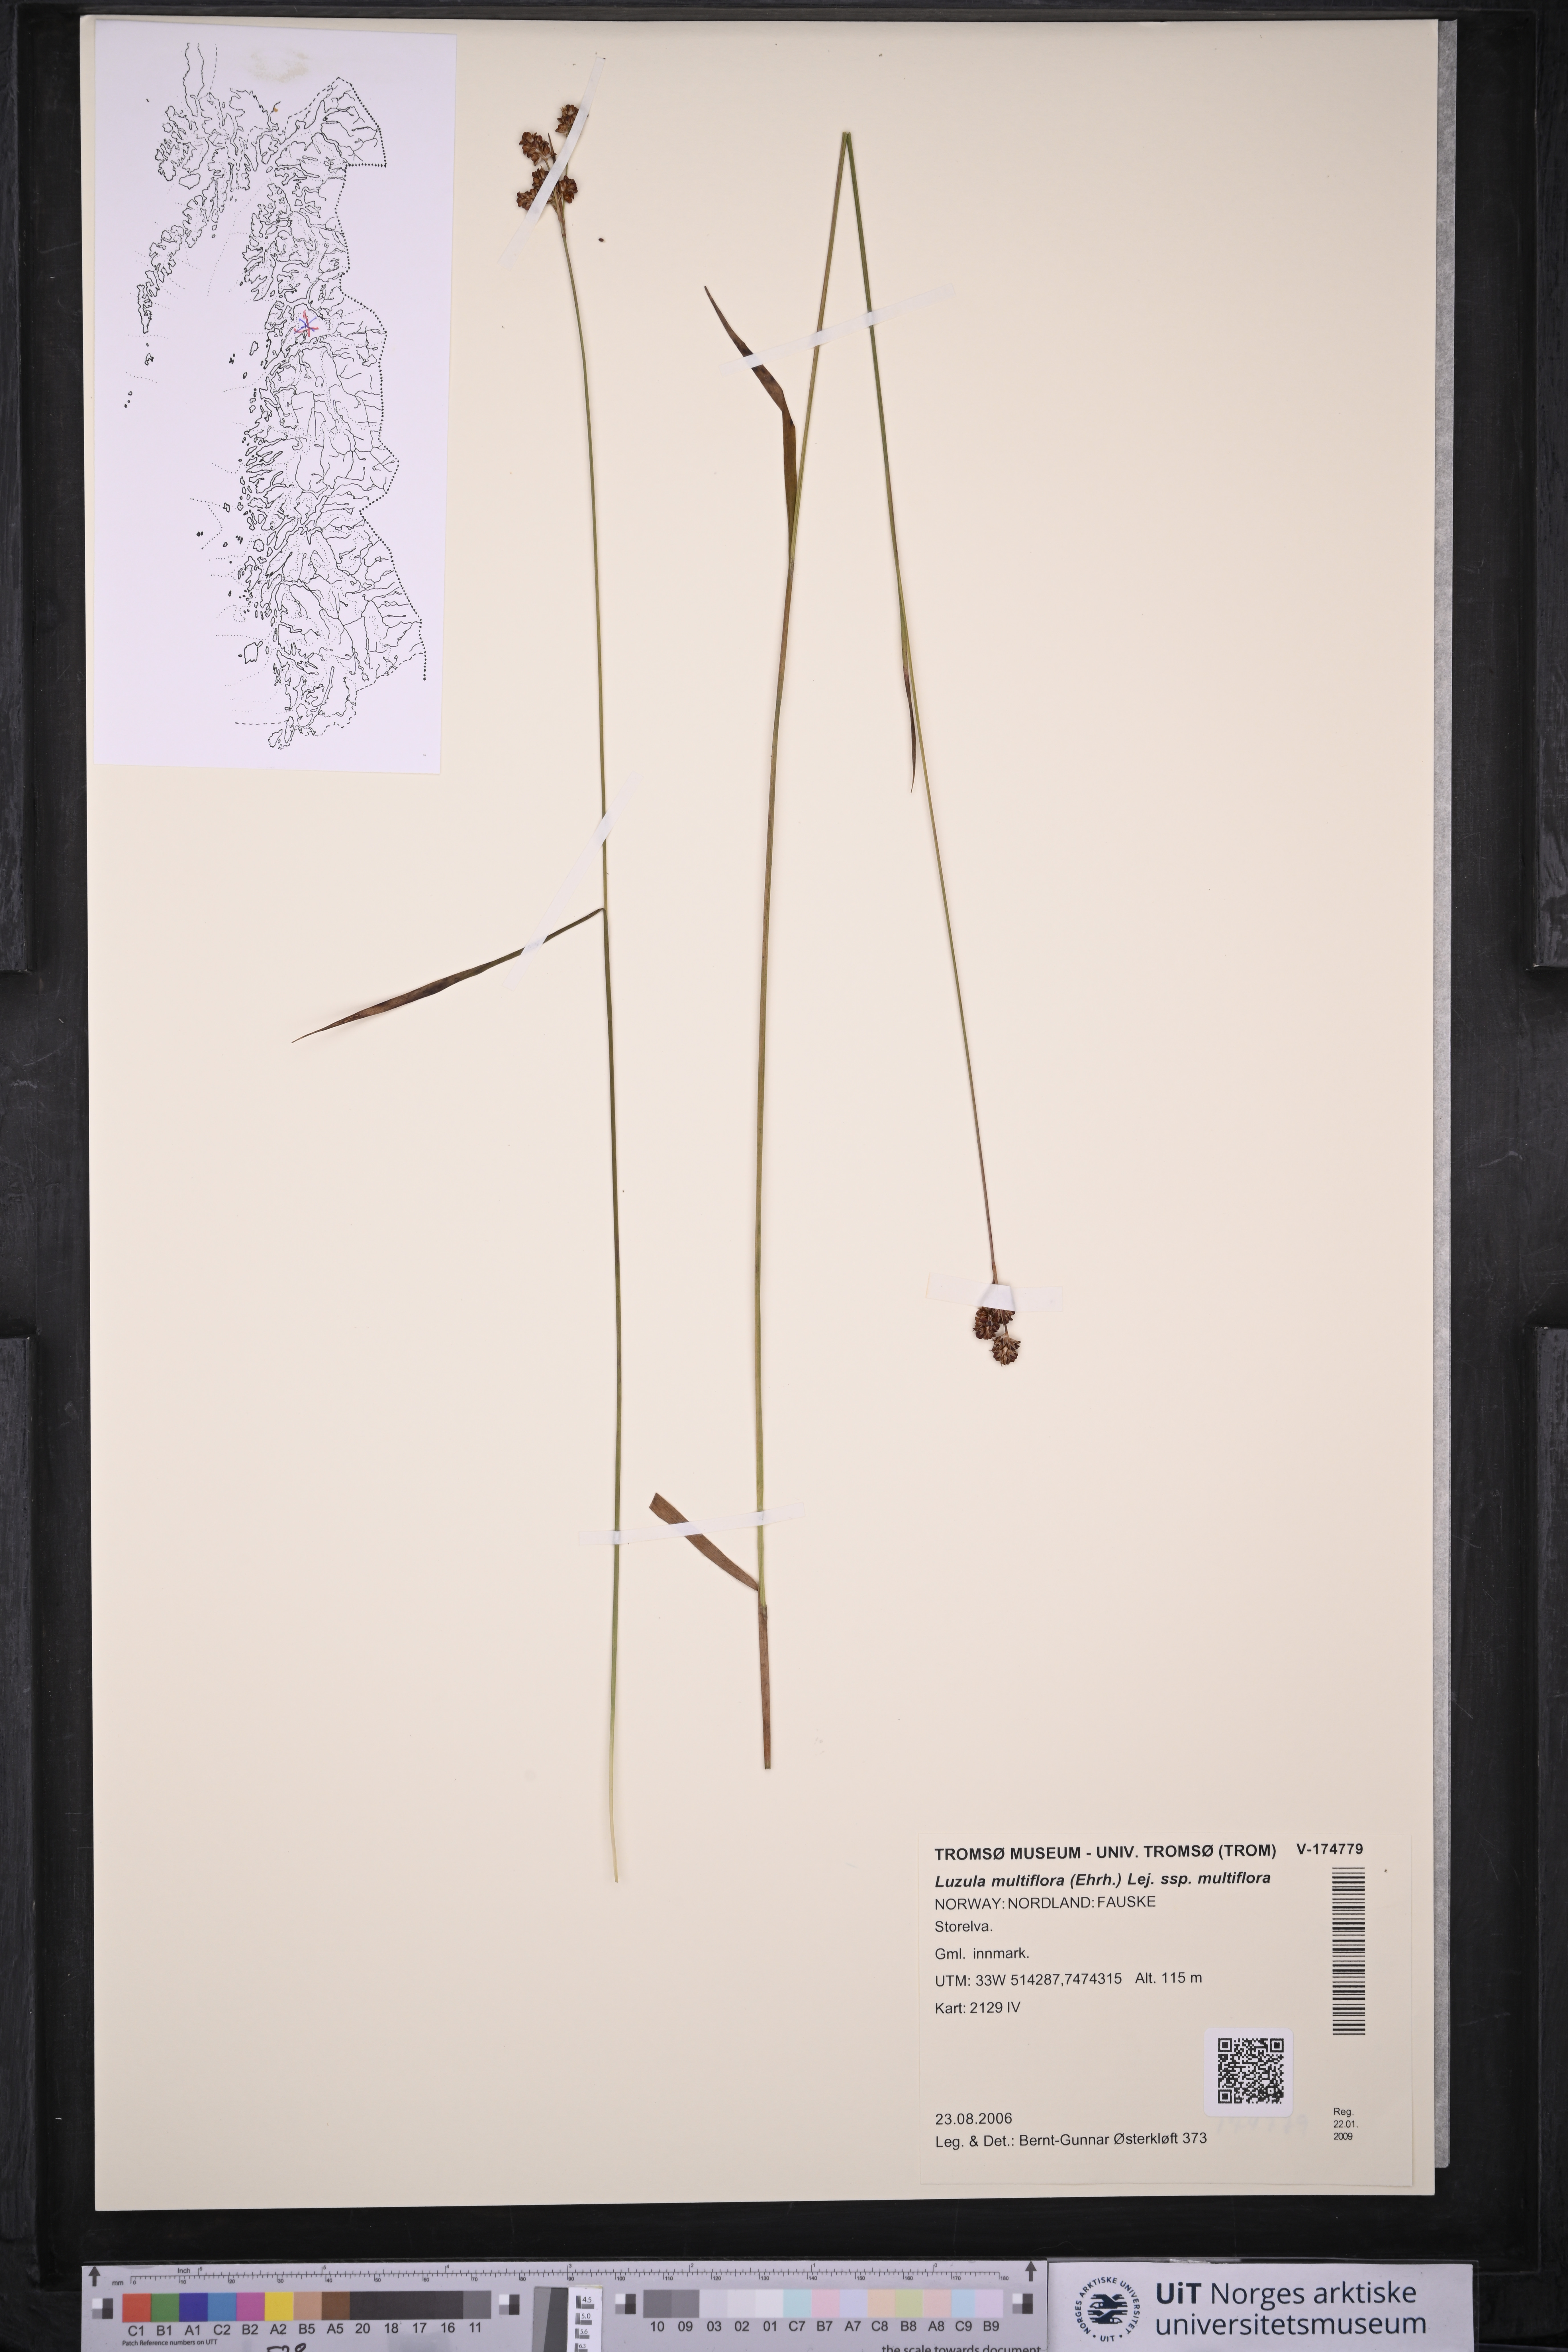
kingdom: Plantae
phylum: Tracheophyta
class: Liliopsida
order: Poales
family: Juncaceae
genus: Luzula
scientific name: Luzula multiflora
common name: Heath wood-rush
